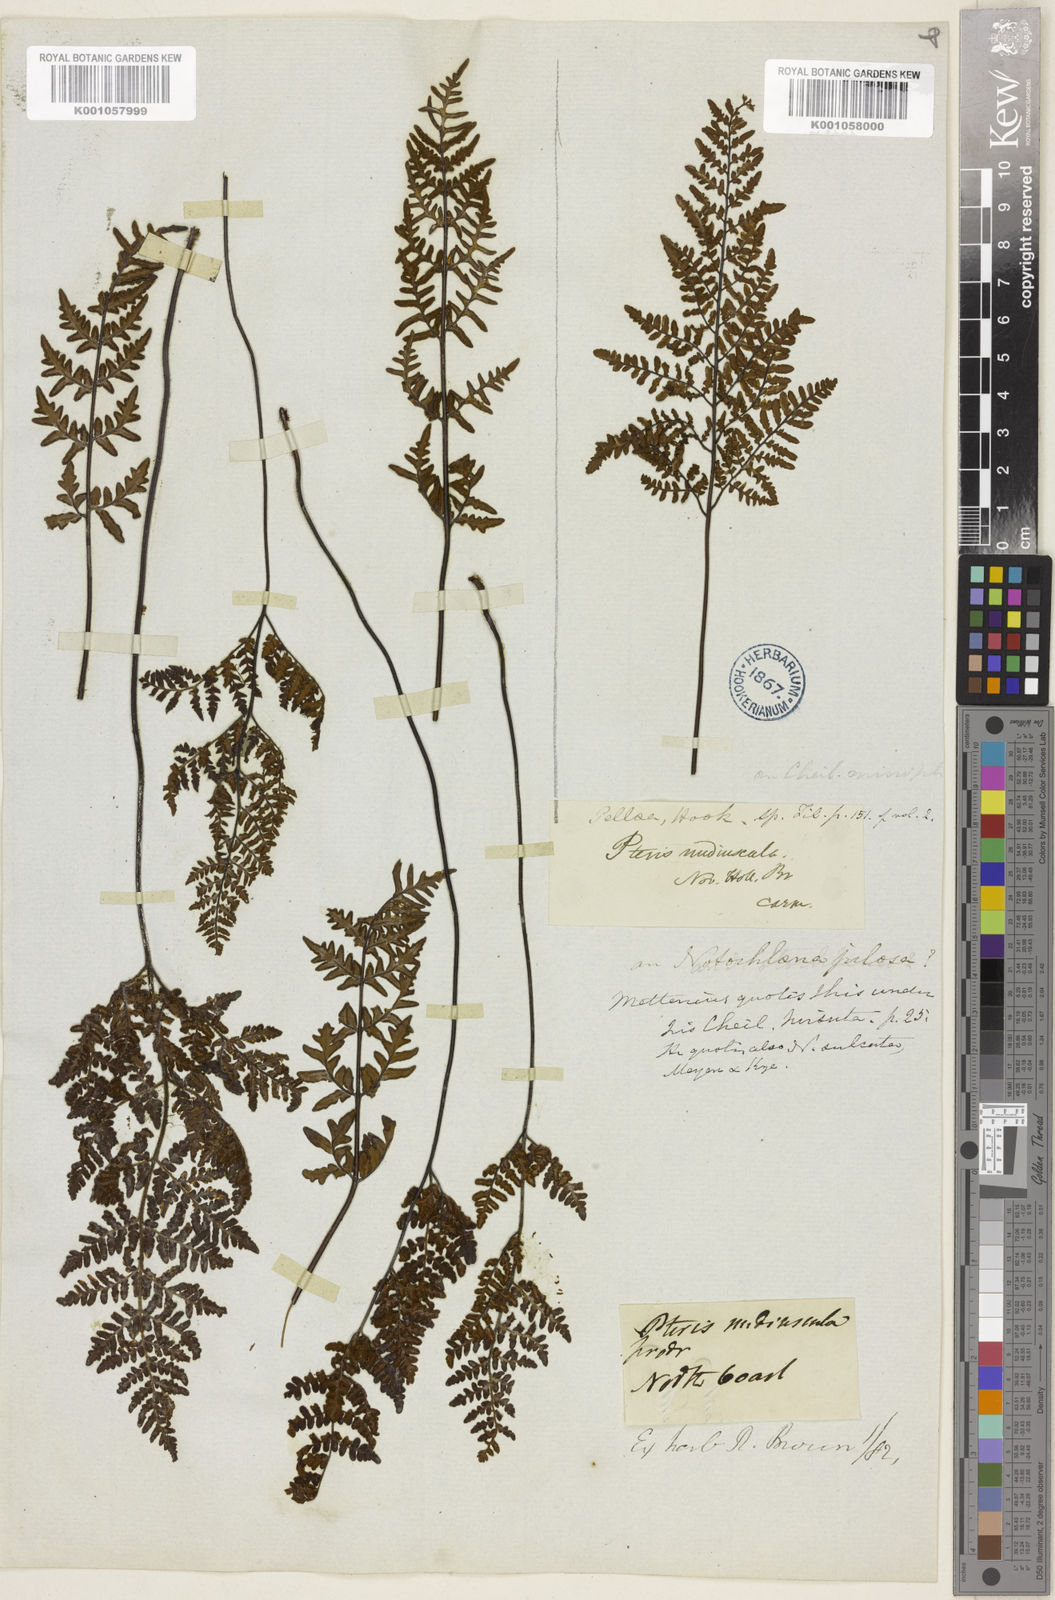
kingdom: Plantae
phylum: Tracheophyta
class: Polypodiopsida
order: Polypodiales
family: Pteridaceae
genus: Gaga
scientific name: Gaga hirsuta
